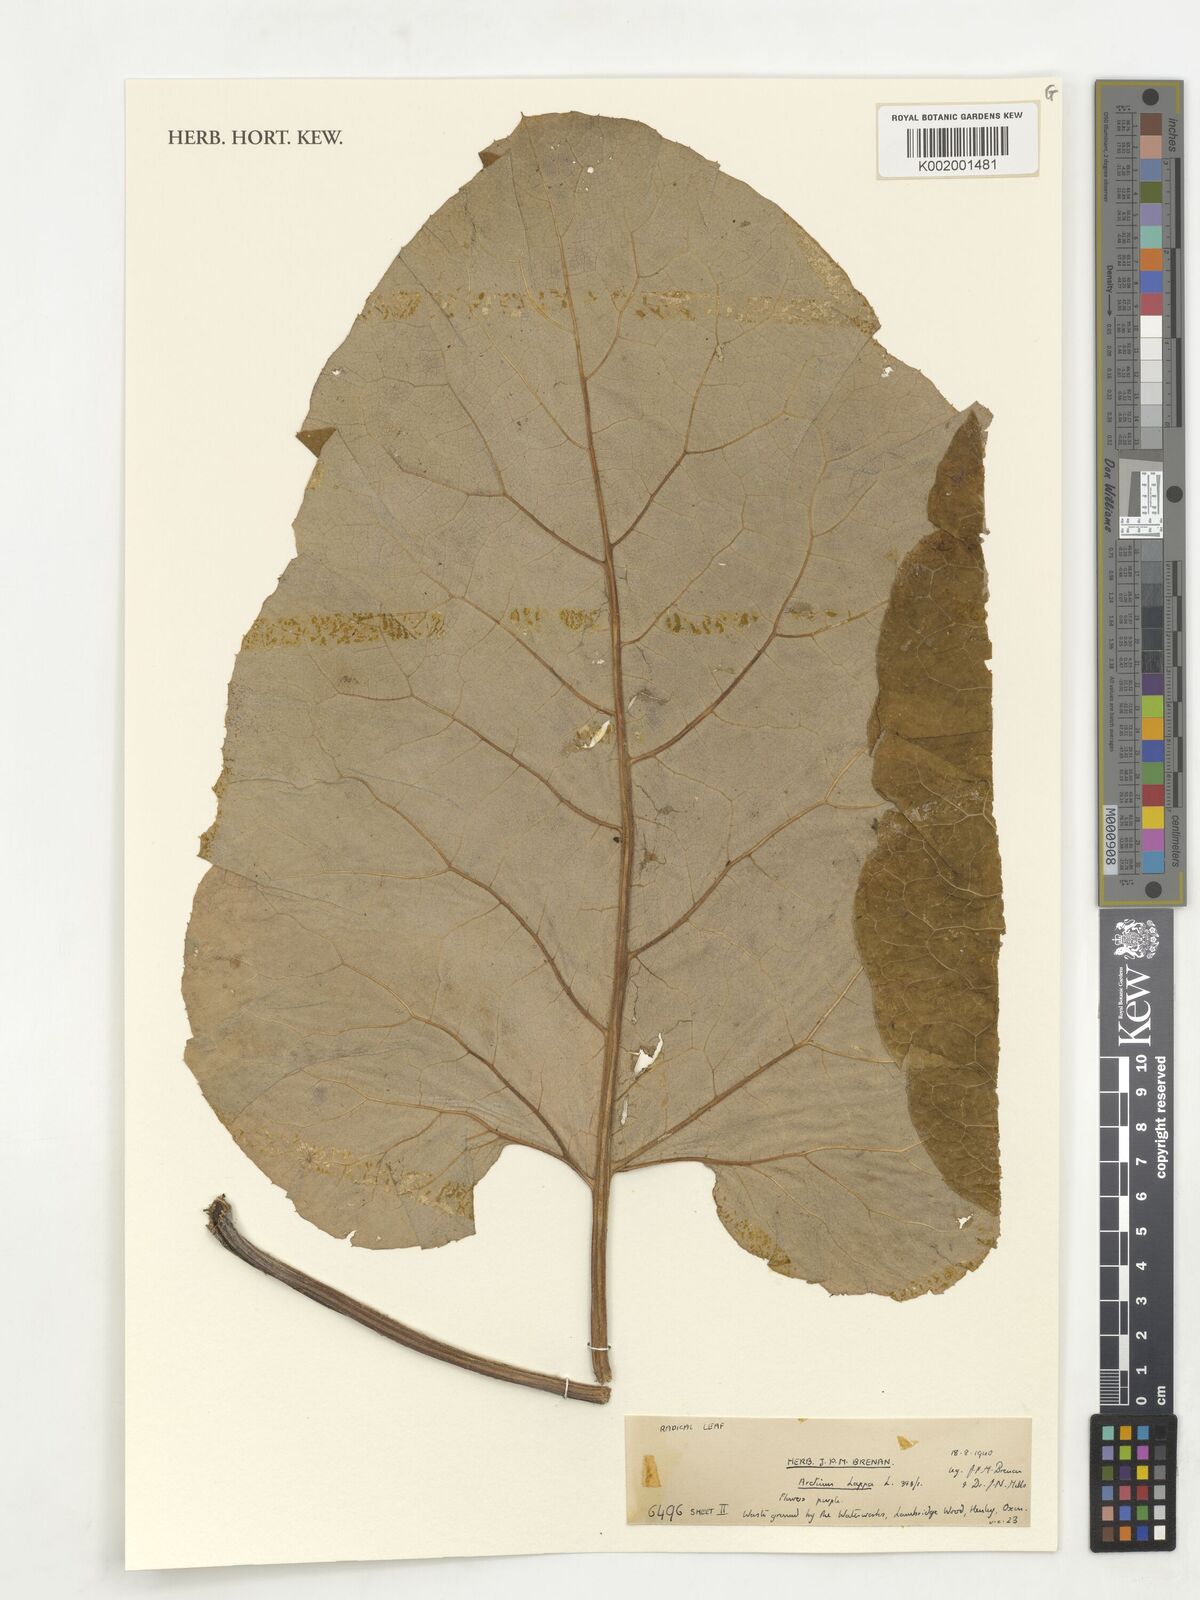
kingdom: Plantae
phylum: Tracheophyta
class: Magnoliopsida
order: Asterales
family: Asteraceae
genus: Arctium
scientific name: Arctium lappa
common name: Greater burdock
